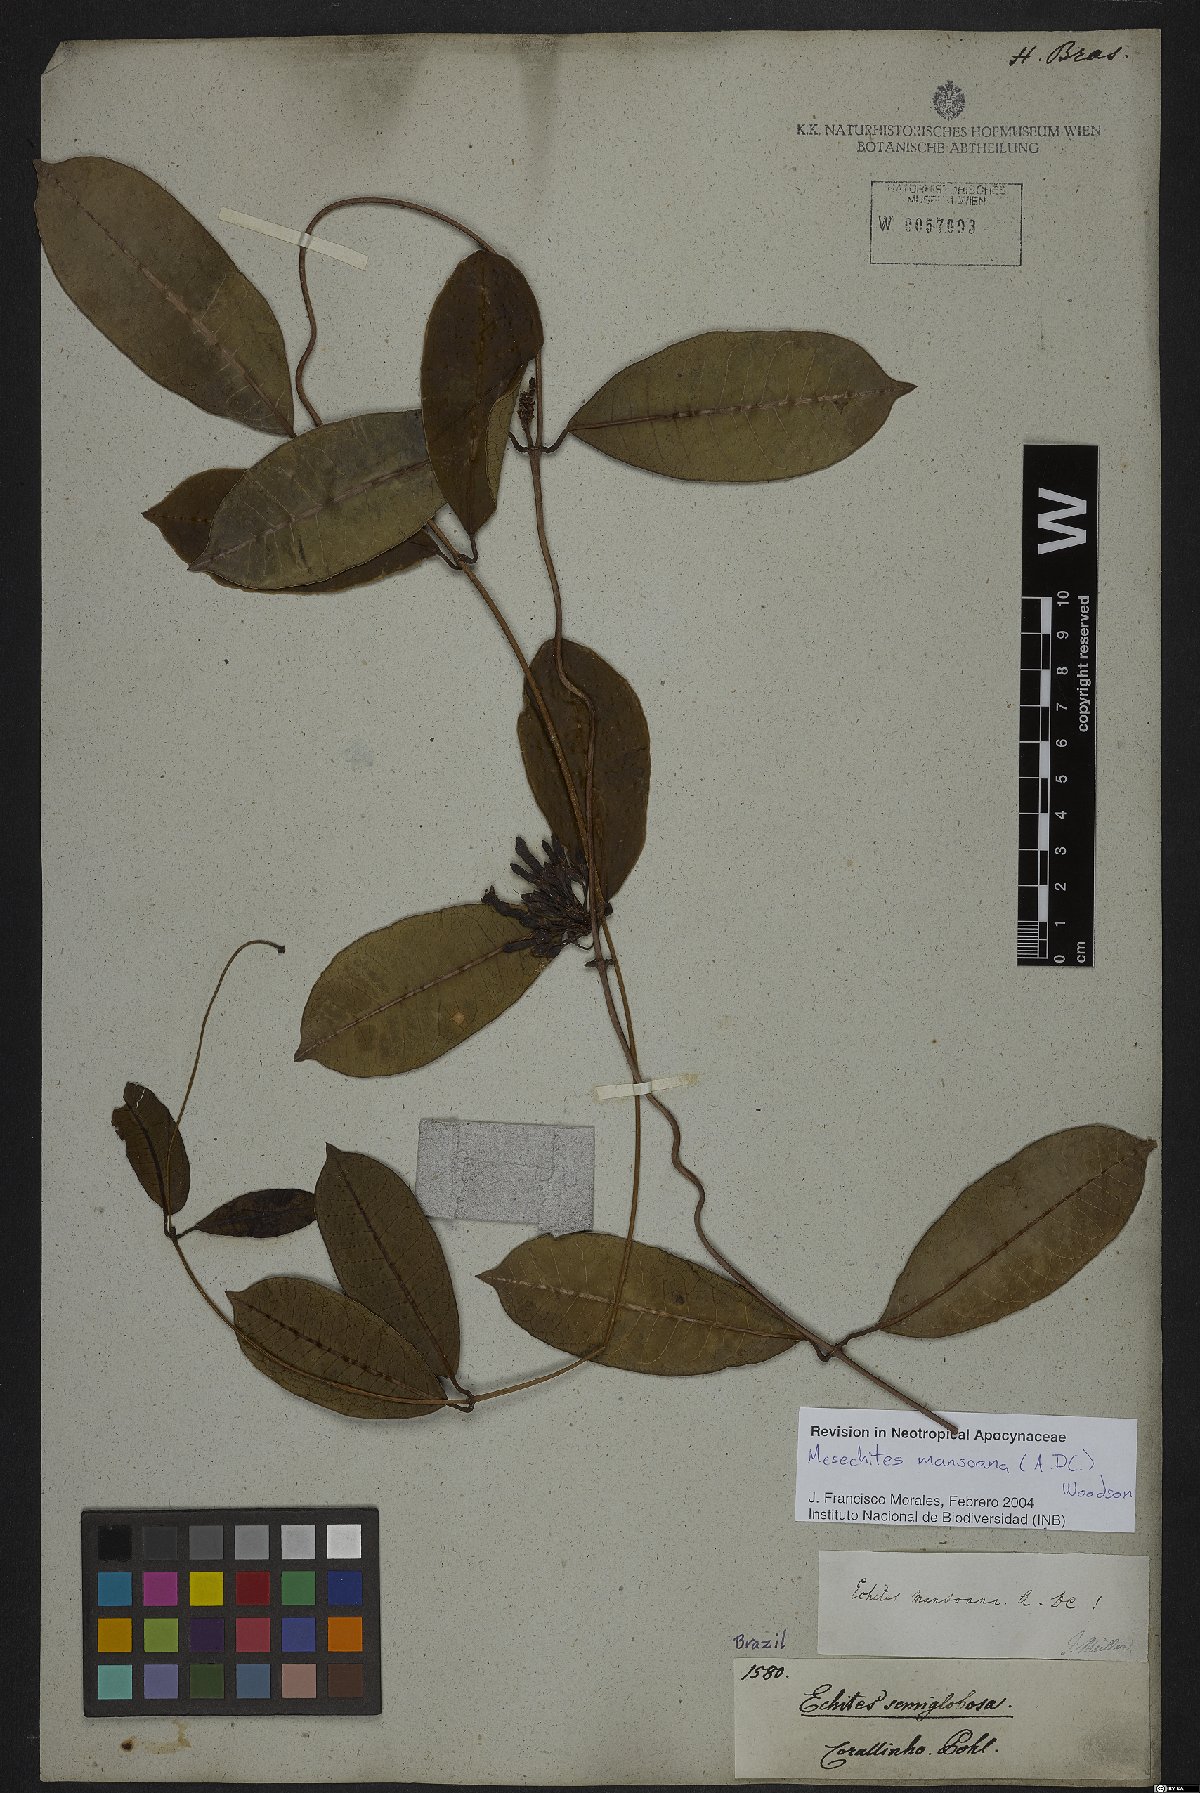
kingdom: Plantae
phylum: Tracheophyta
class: Magnoliopsida
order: Gentianales
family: Apocynaceae
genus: Mesechites
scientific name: Mesechites mansoanus
